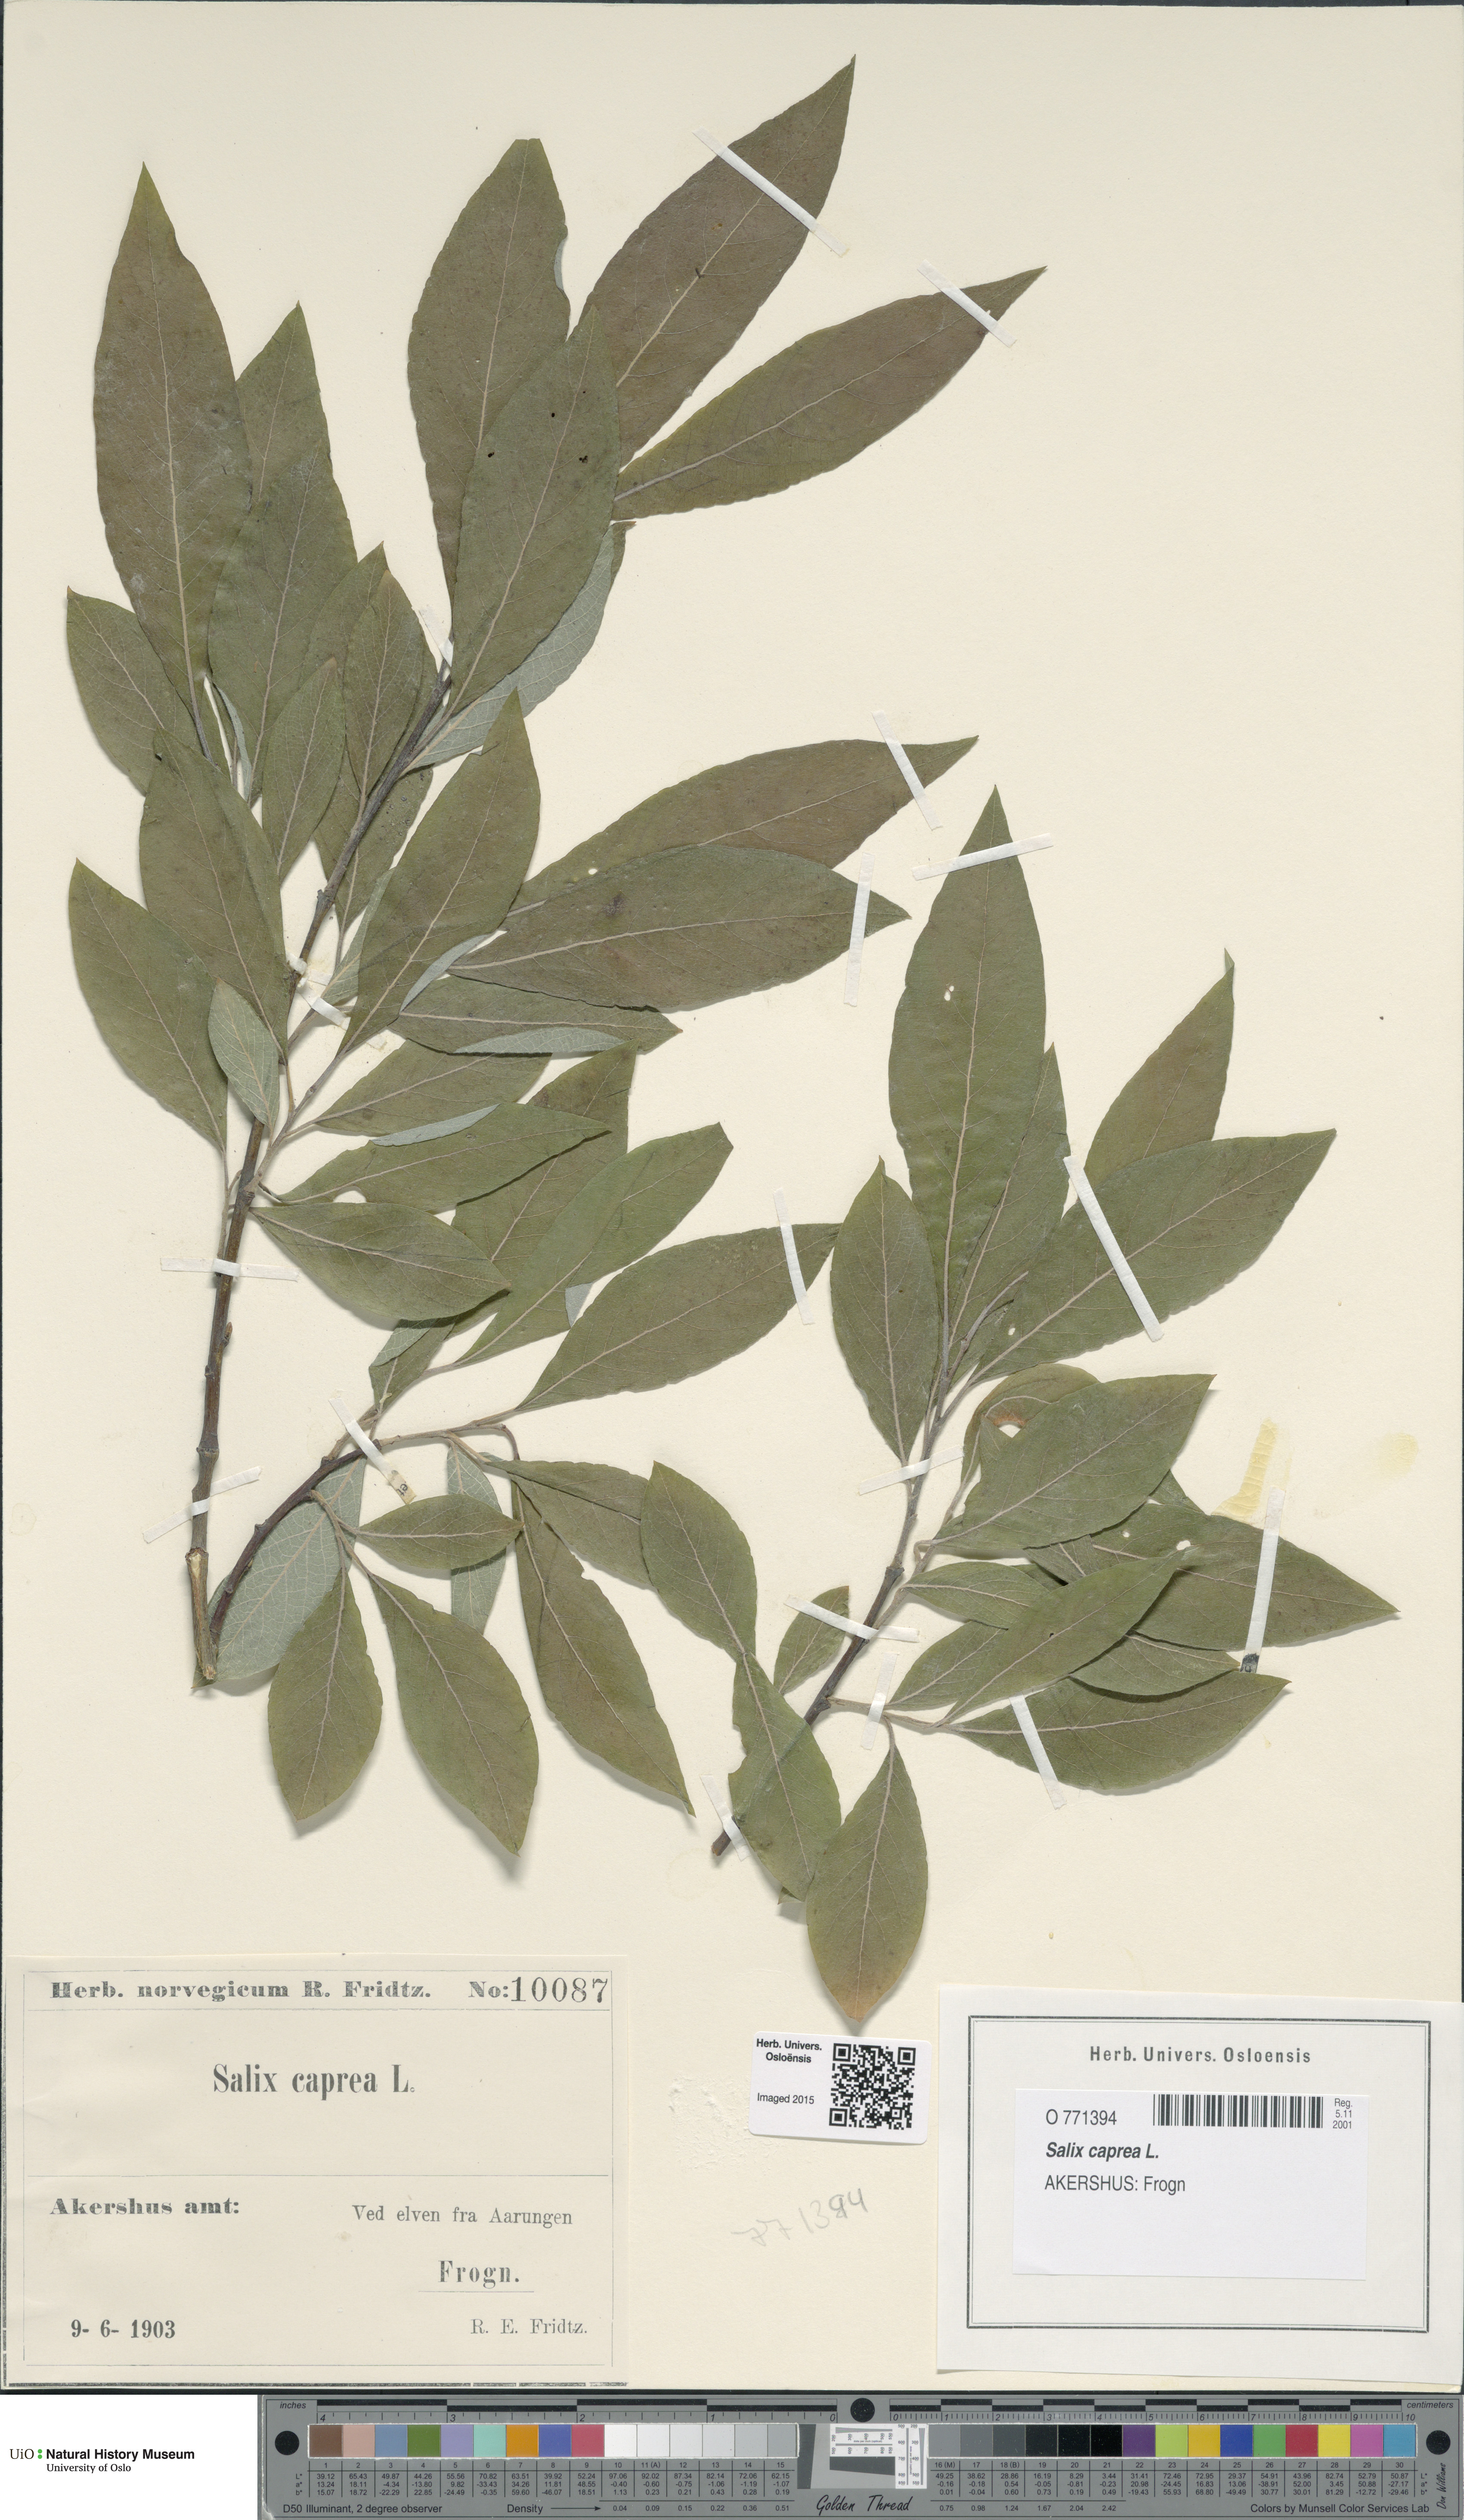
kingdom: Plantae
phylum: Tracheophyta
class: Magnoliopsida
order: Malpighiales
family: Salicaceae
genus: Salix
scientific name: Salix caprea
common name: Goat willow
